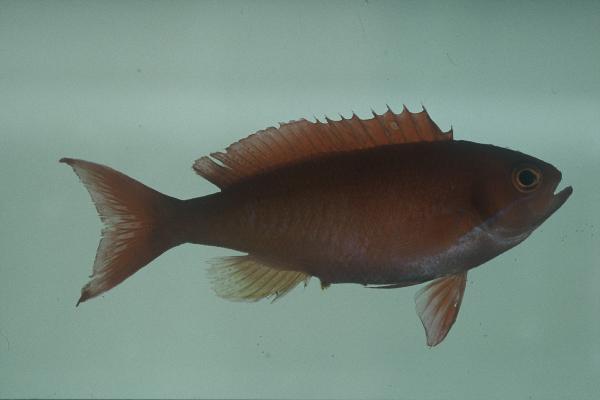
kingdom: Animalia
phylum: Chordata
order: Perciformes
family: Serranidae
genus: Pseudanthias
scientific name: Pseudanthias cooperi
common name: Red basslet
